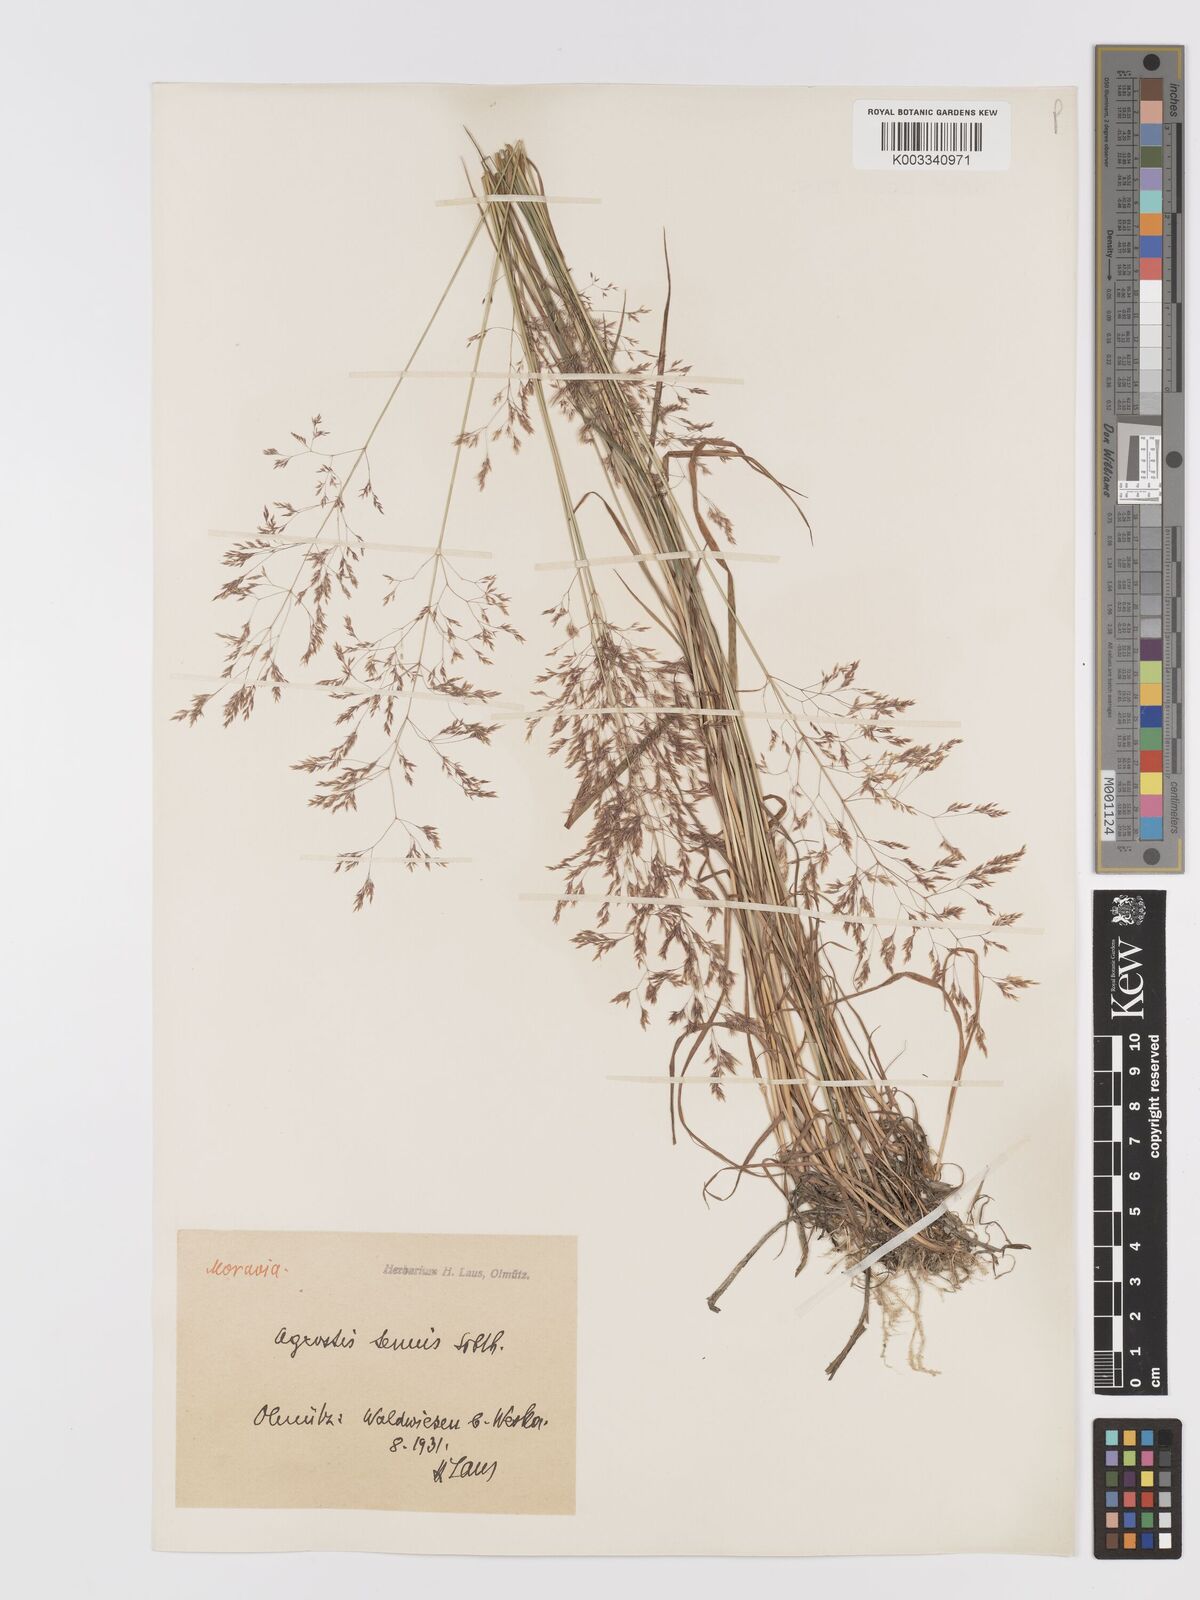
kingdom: Plantae
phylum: Tracheophyta
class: Liliopsida
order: Poales
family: Poaceae
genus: Agrostis
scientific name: Agrostis capillaris
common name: Colonial bentgrass
